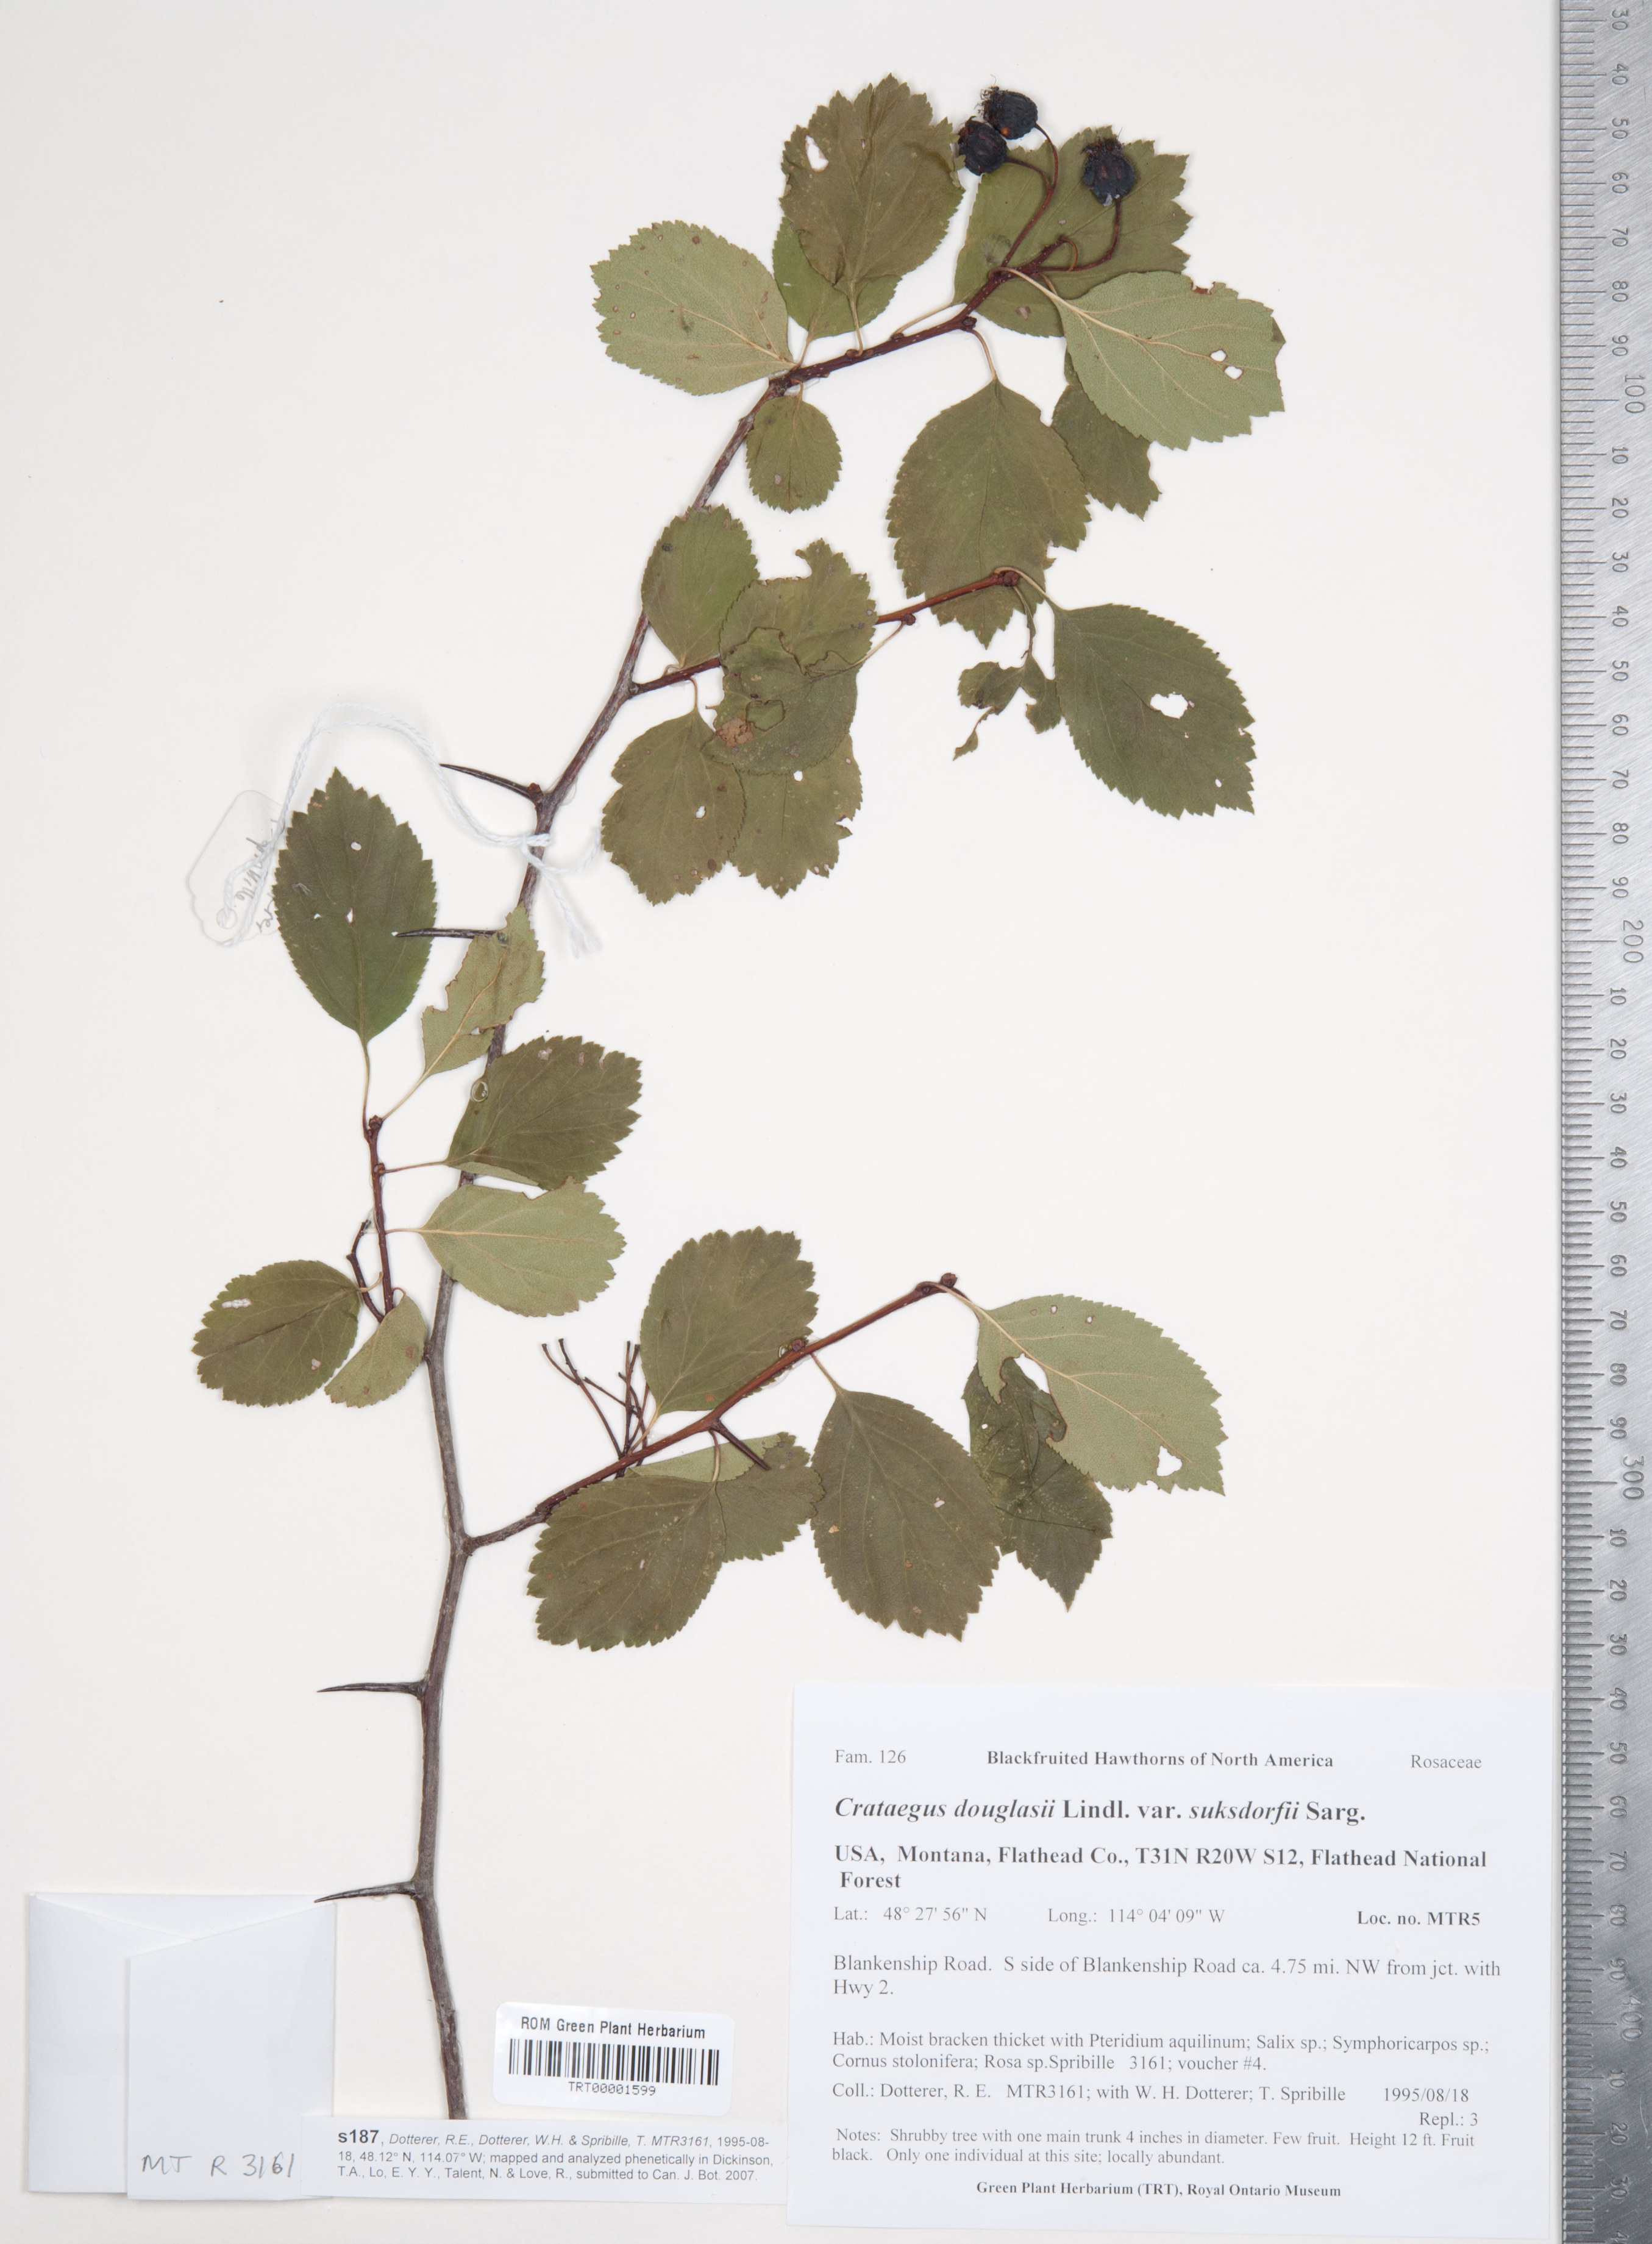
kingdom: Plantae
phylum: Tracheophyta
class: Magnoliopsida
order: Rosales
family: Rosaceae
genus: Crataegus
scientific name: Crataegus gaylussacia
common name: Huckleberry hawthorn
